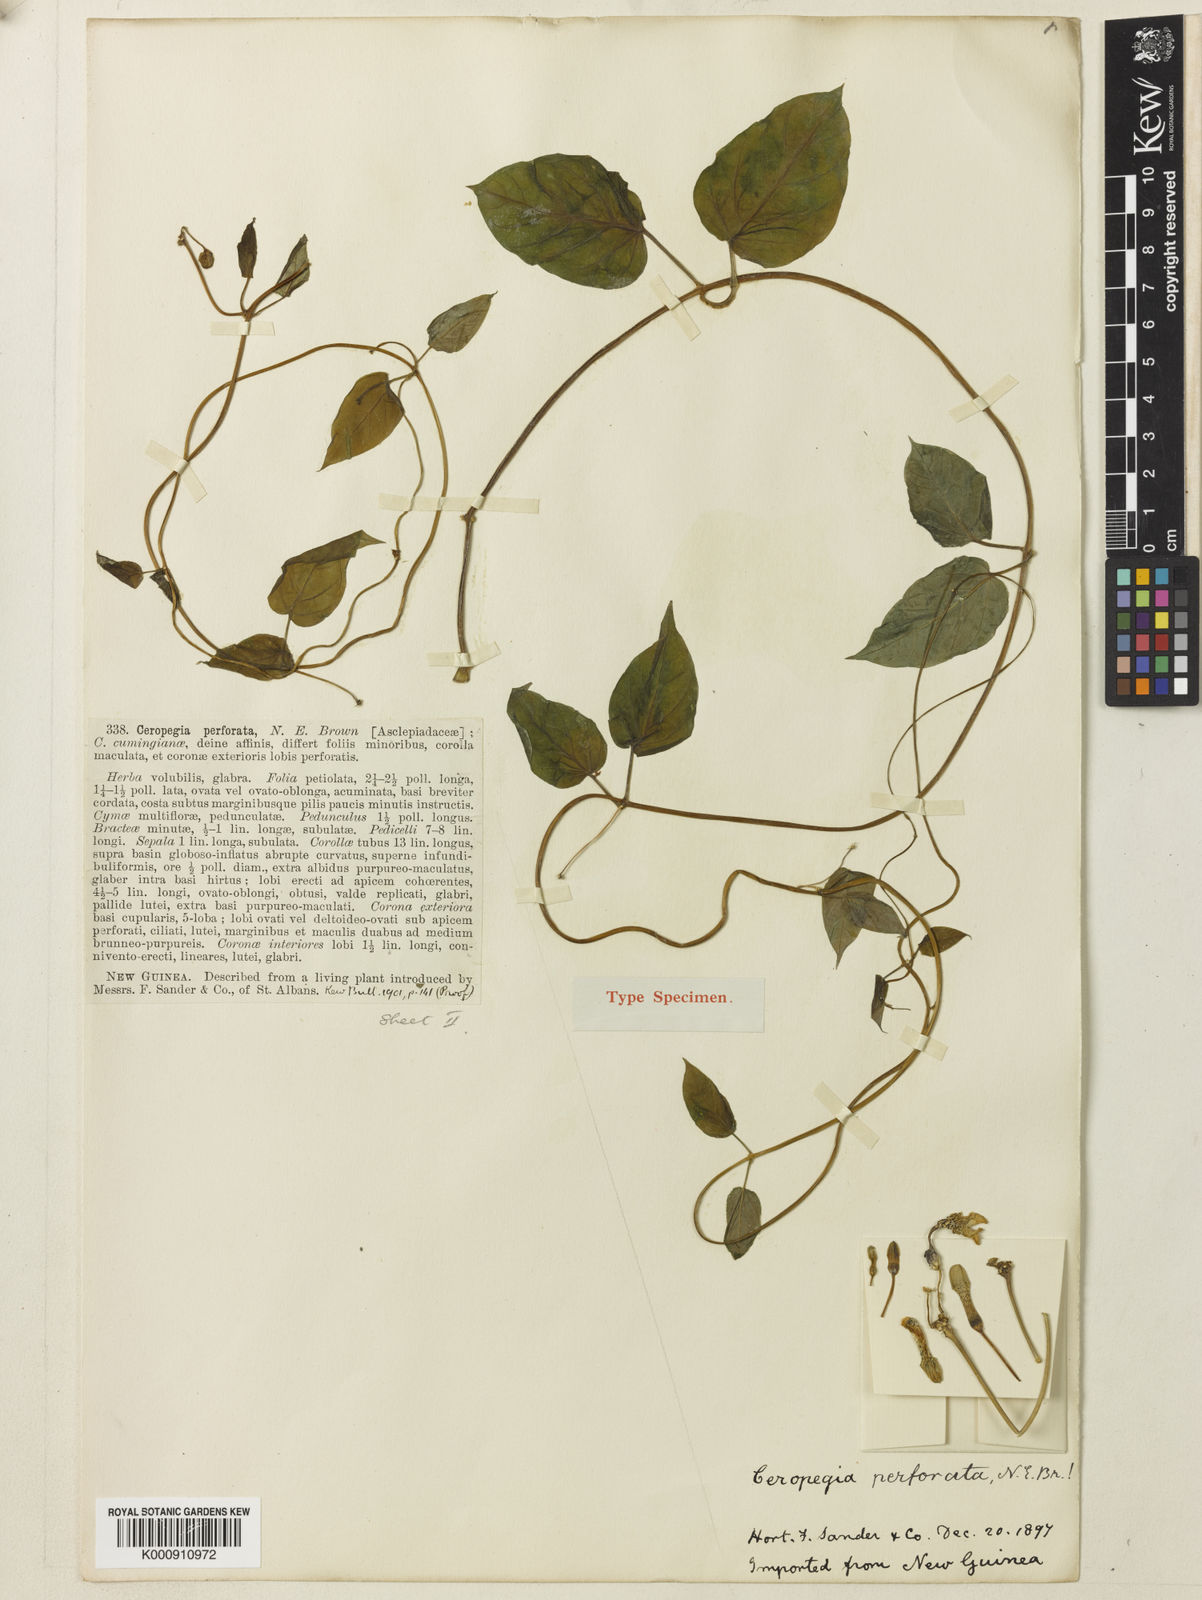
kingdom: Plantae
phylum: Tracheophyta
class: Magnoliopsida
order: Gentianales
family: Apocynaceae
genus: Ceropegia
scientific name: Ceropegia cumingiana
